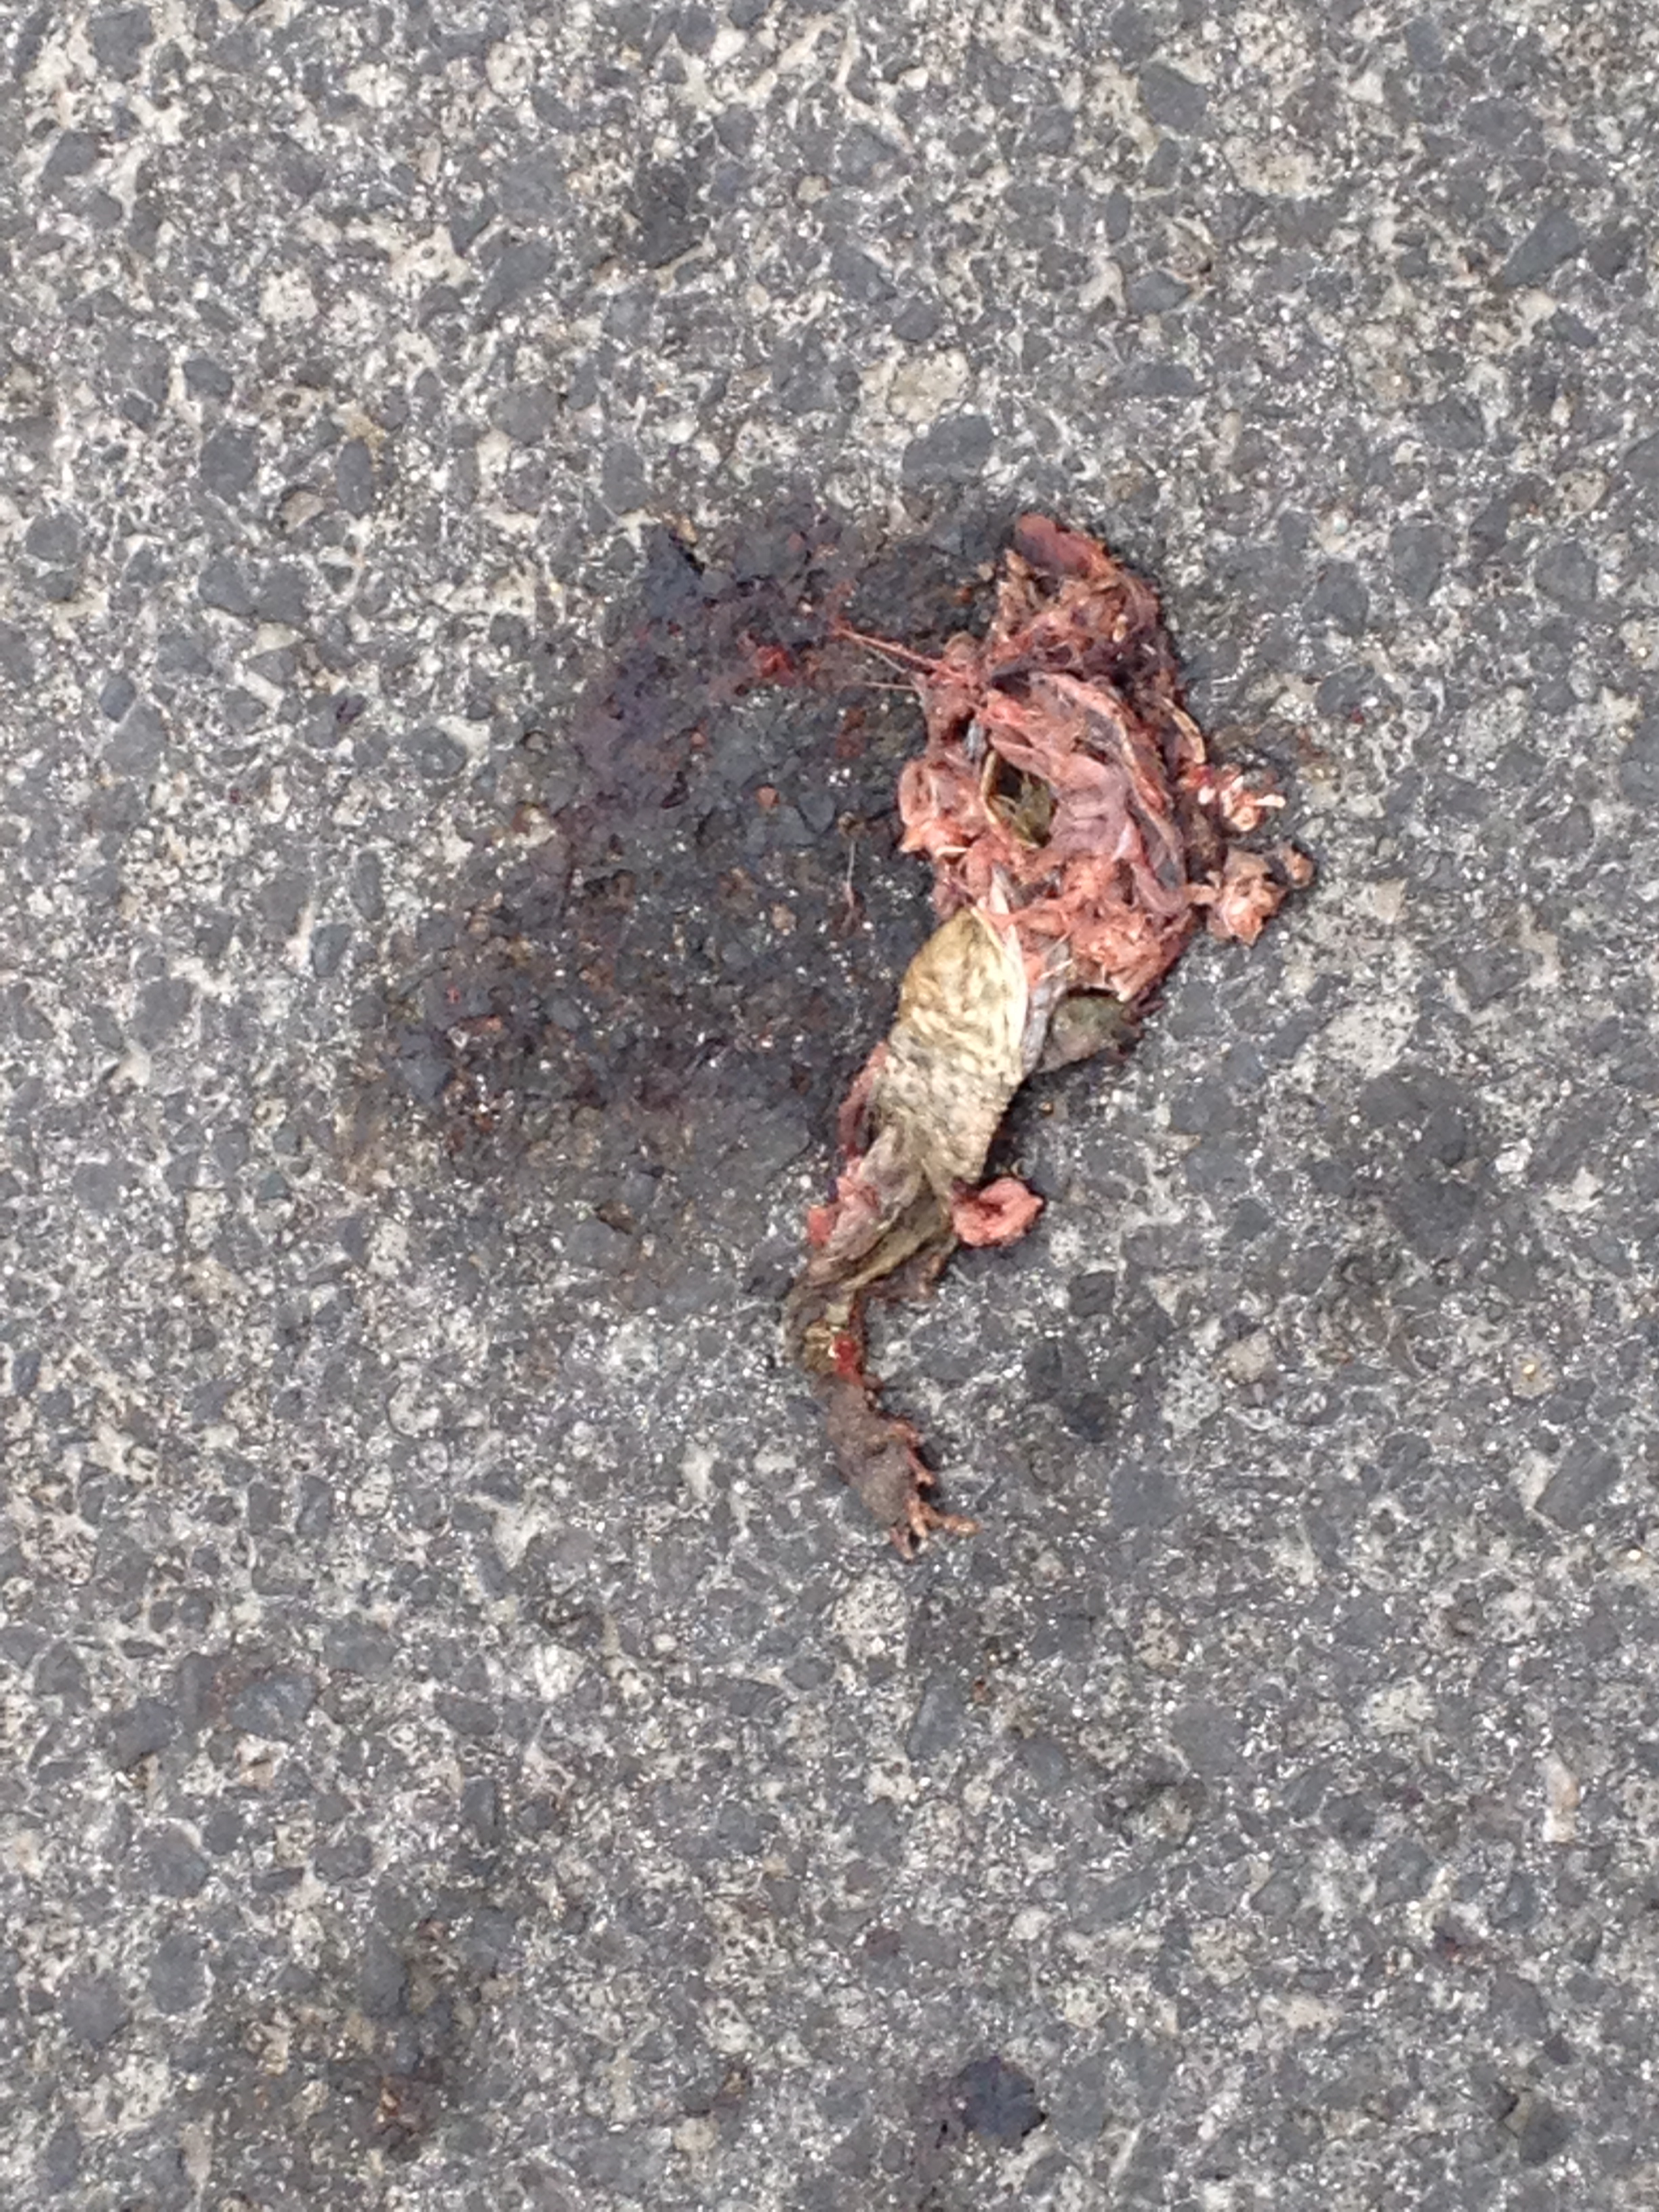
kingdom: Animalia
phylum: Chordata
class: Amphibia
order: Anura
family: Bufonidae
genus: Bufo
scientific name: Bufo bufo
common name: Common toad
